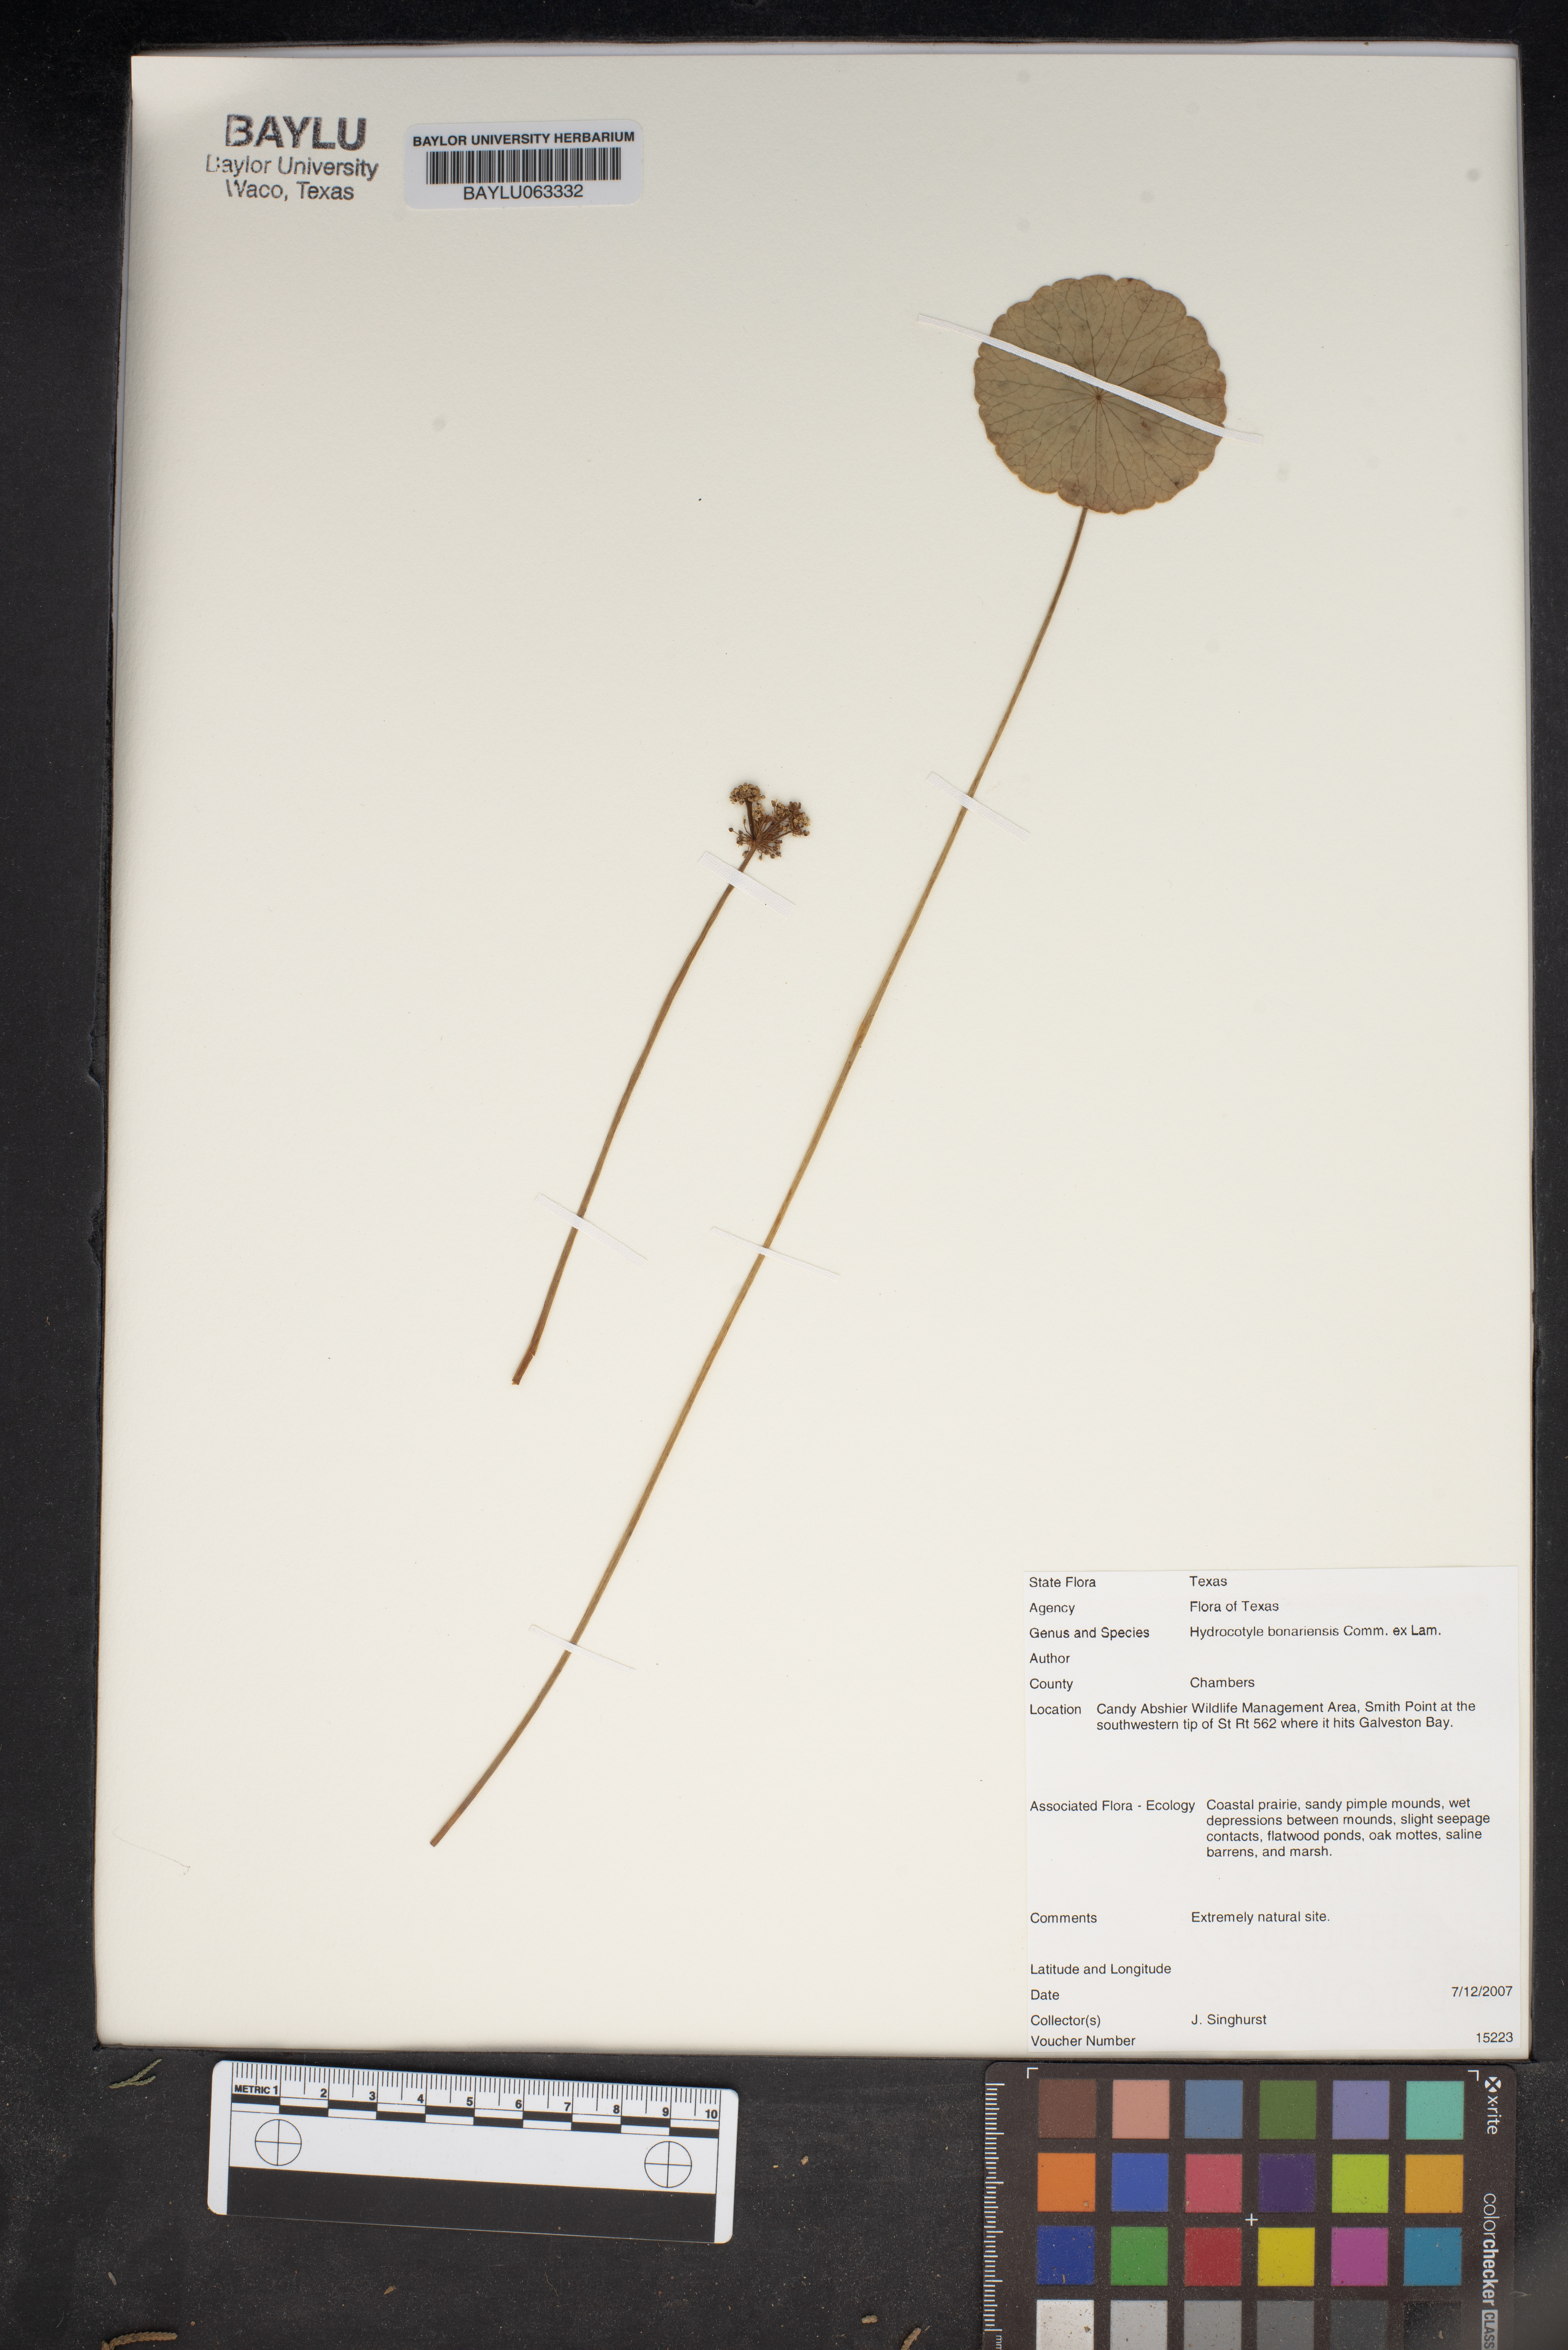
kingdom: Plantae
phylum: Tracheophyta
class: Magnoliopsida
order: Apiales
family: Araliaceae
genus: Hydrocotyle
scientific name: Hydrocotyle bonariensis
